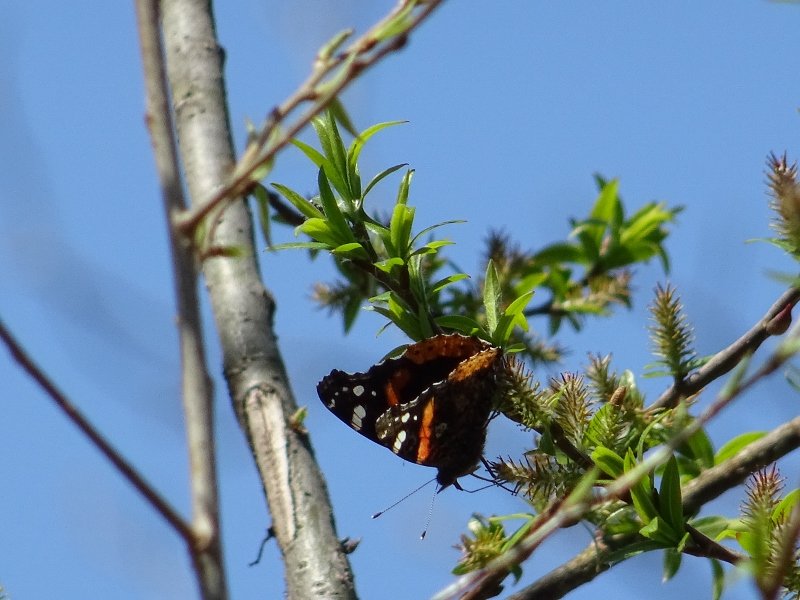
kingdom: Animalia
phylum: Arthropoda
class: Insecta
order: Lepidoptera
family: Nymphalidae
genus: Vanessa
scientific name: Vanessa atalanta
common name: Red Admiral
